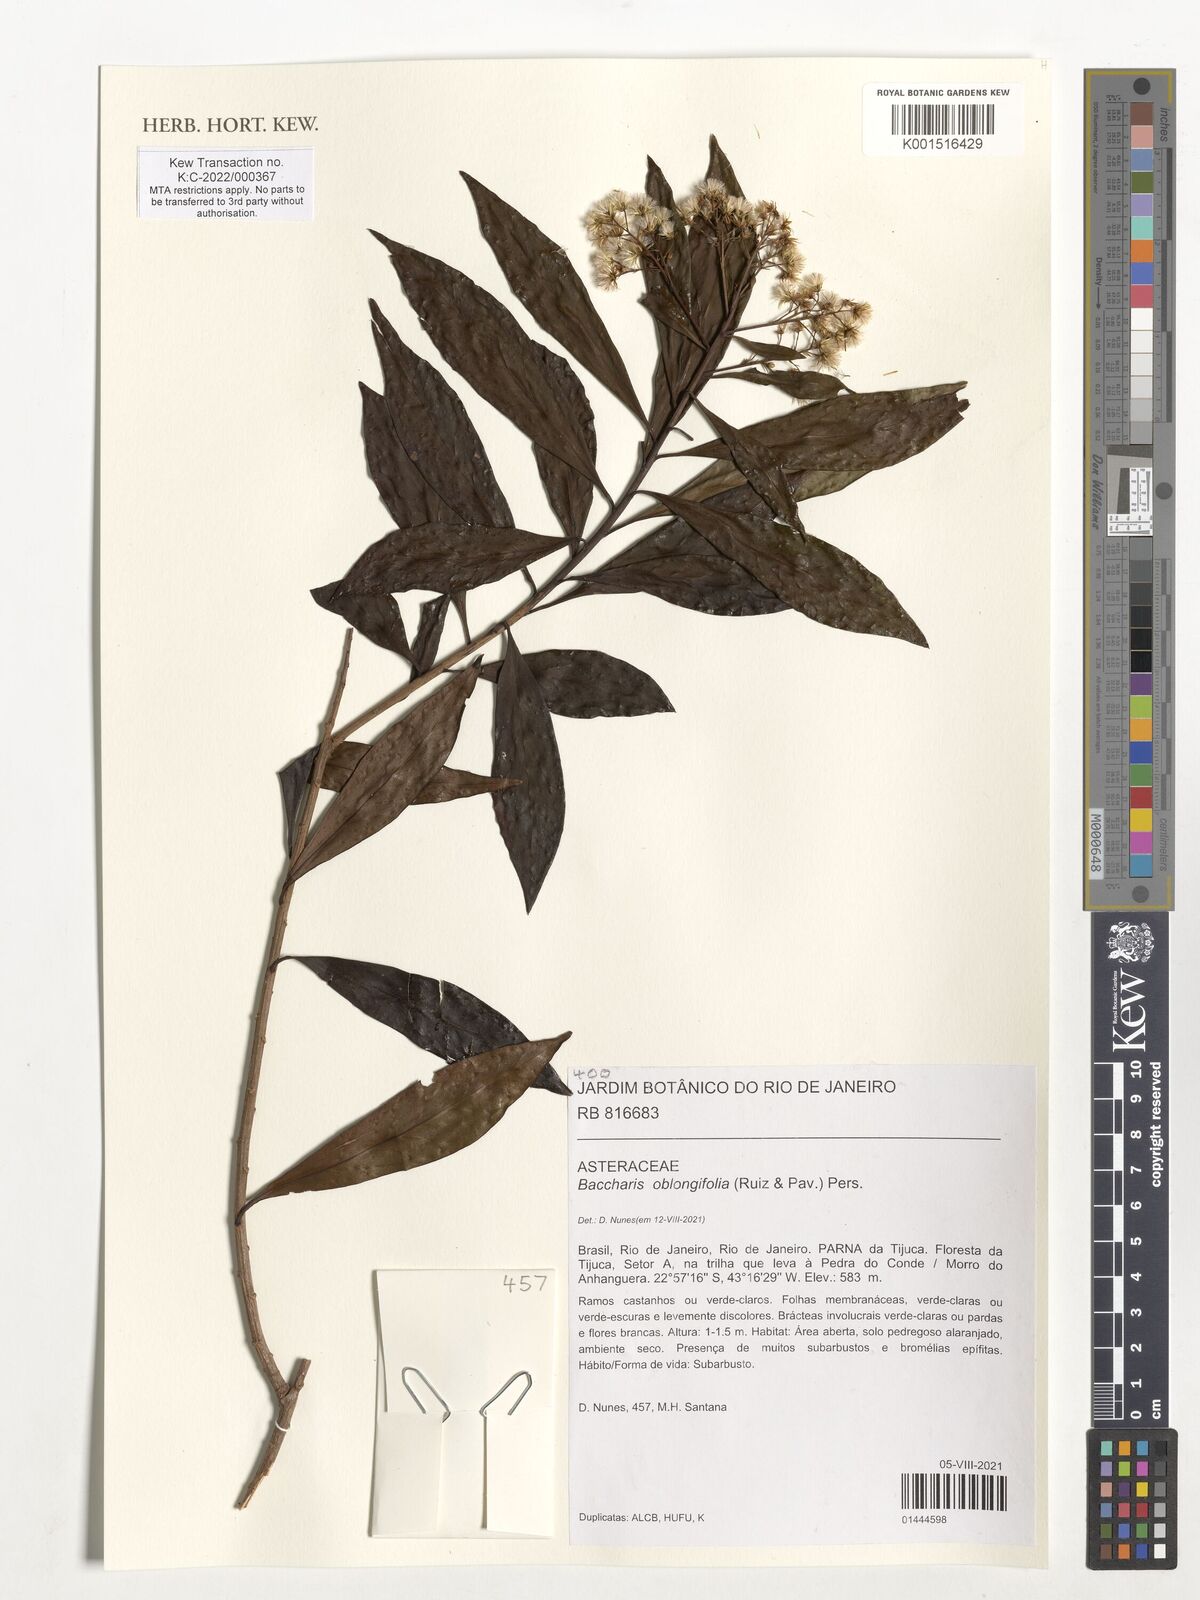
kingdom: Plantae
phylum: Tracheophyta
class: Magnoliopsida
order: Asterales
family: Asteraceae
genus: Baccharis
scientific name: Baccharis oblongifolia
